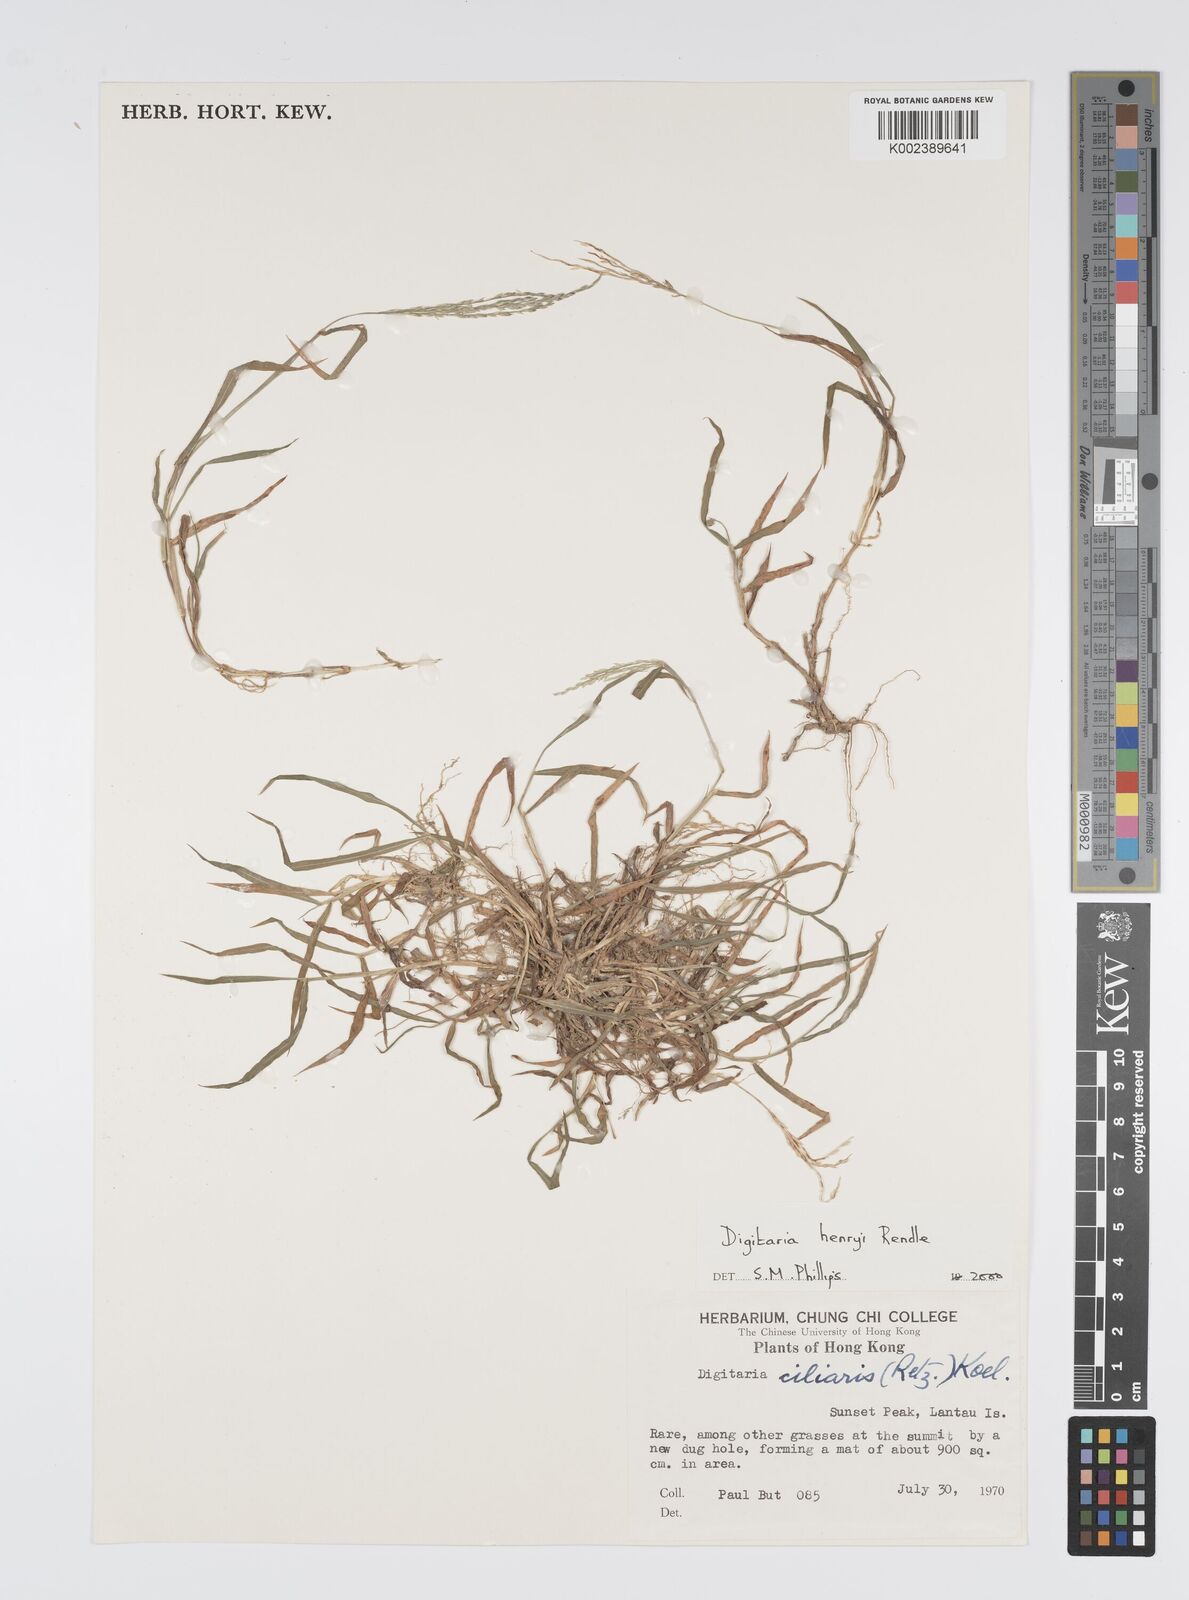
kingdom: Plantae
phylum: Tracheophyta
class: Liliopsida
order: Poales
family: Poaceae
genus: Digitaria
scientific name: Digitaria ciliaris
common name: Tropical finger-grass
